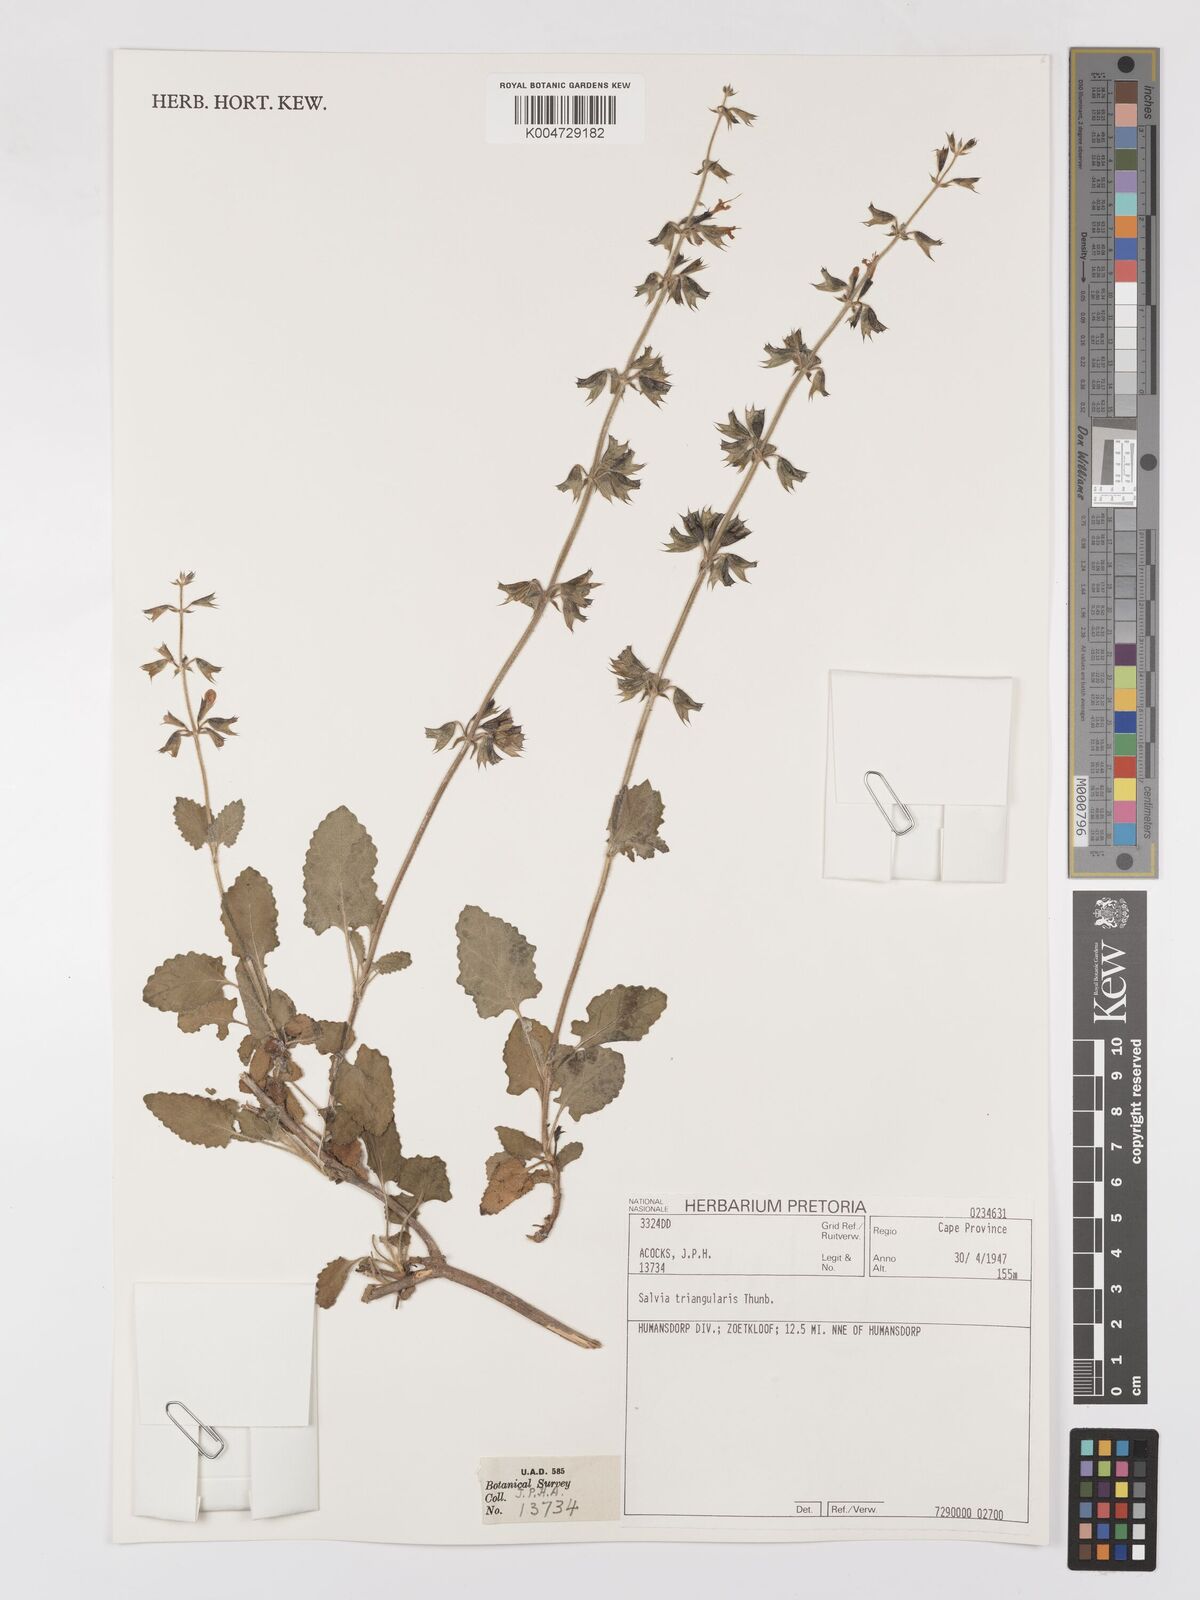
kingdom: Plantae
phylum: Tracheophyta
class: Magnoliopsida
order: Lamiales
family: Lamiaceae
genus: Salvia
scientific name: Salvia triangularis
